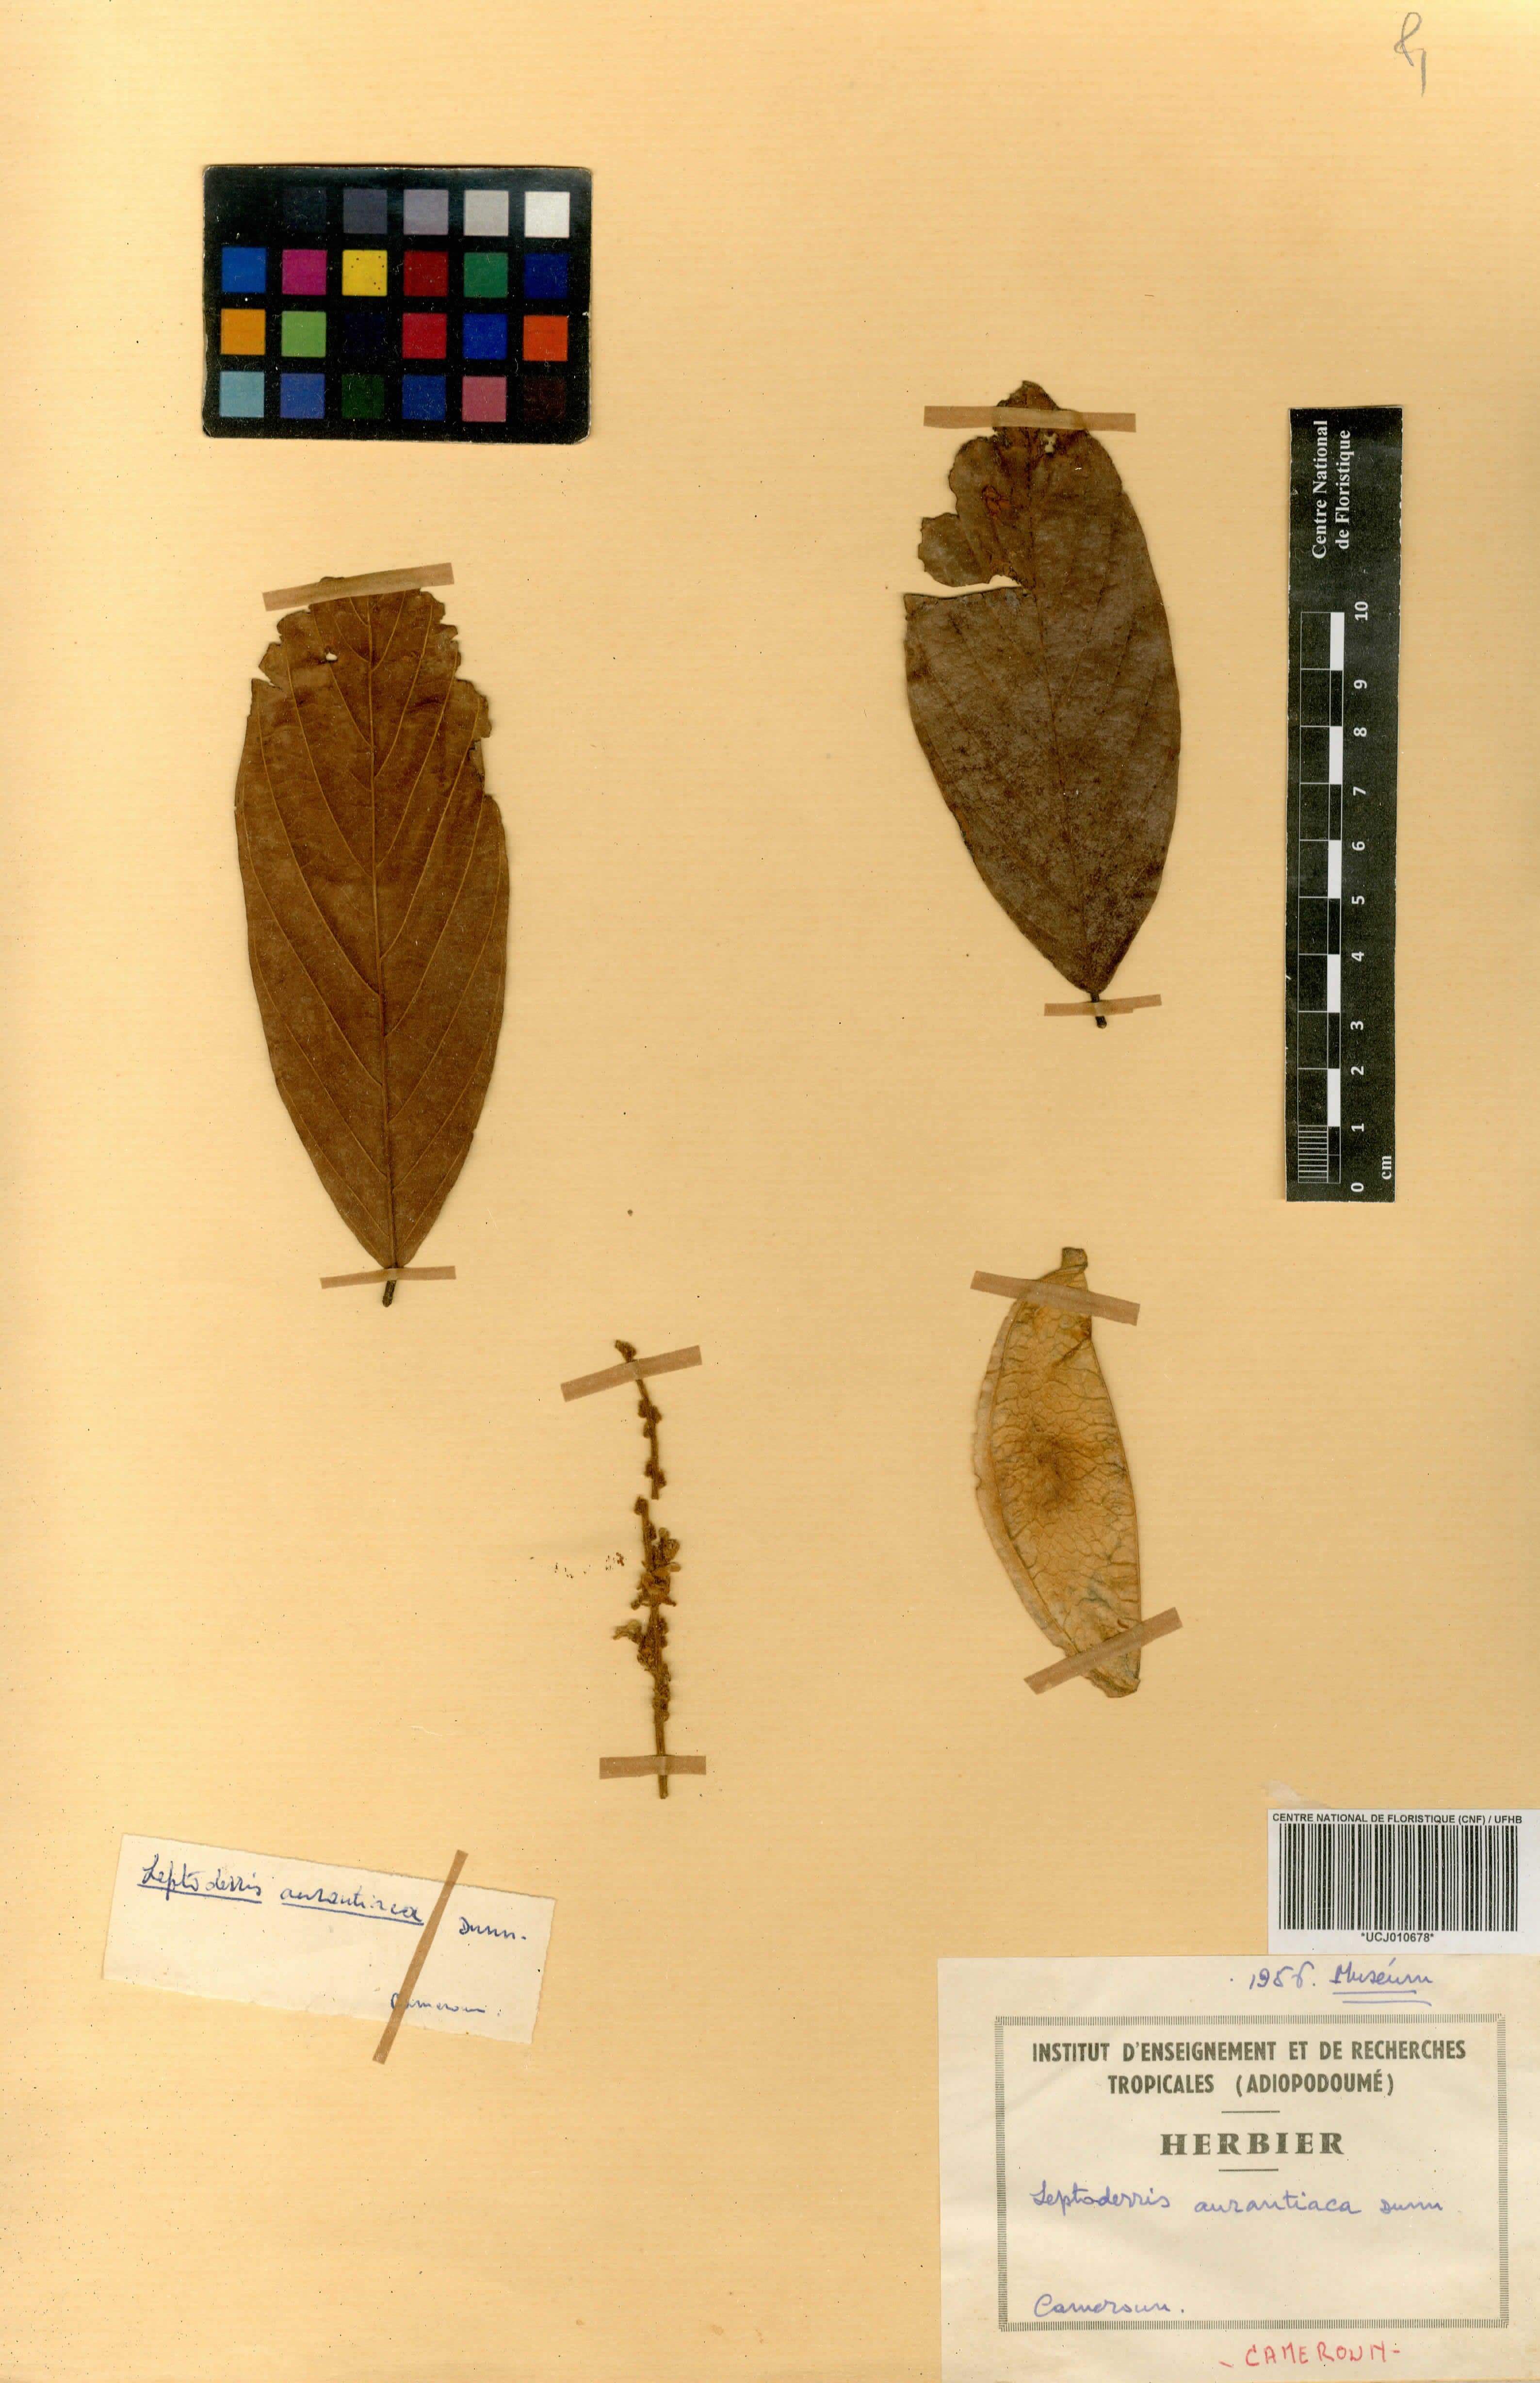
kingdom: Plantae
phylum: Tracheophyta
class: Magnoliopsida
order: Fabales
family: Fabaceae
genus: Leptoderris
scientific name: Leptoderris aurantiaca
